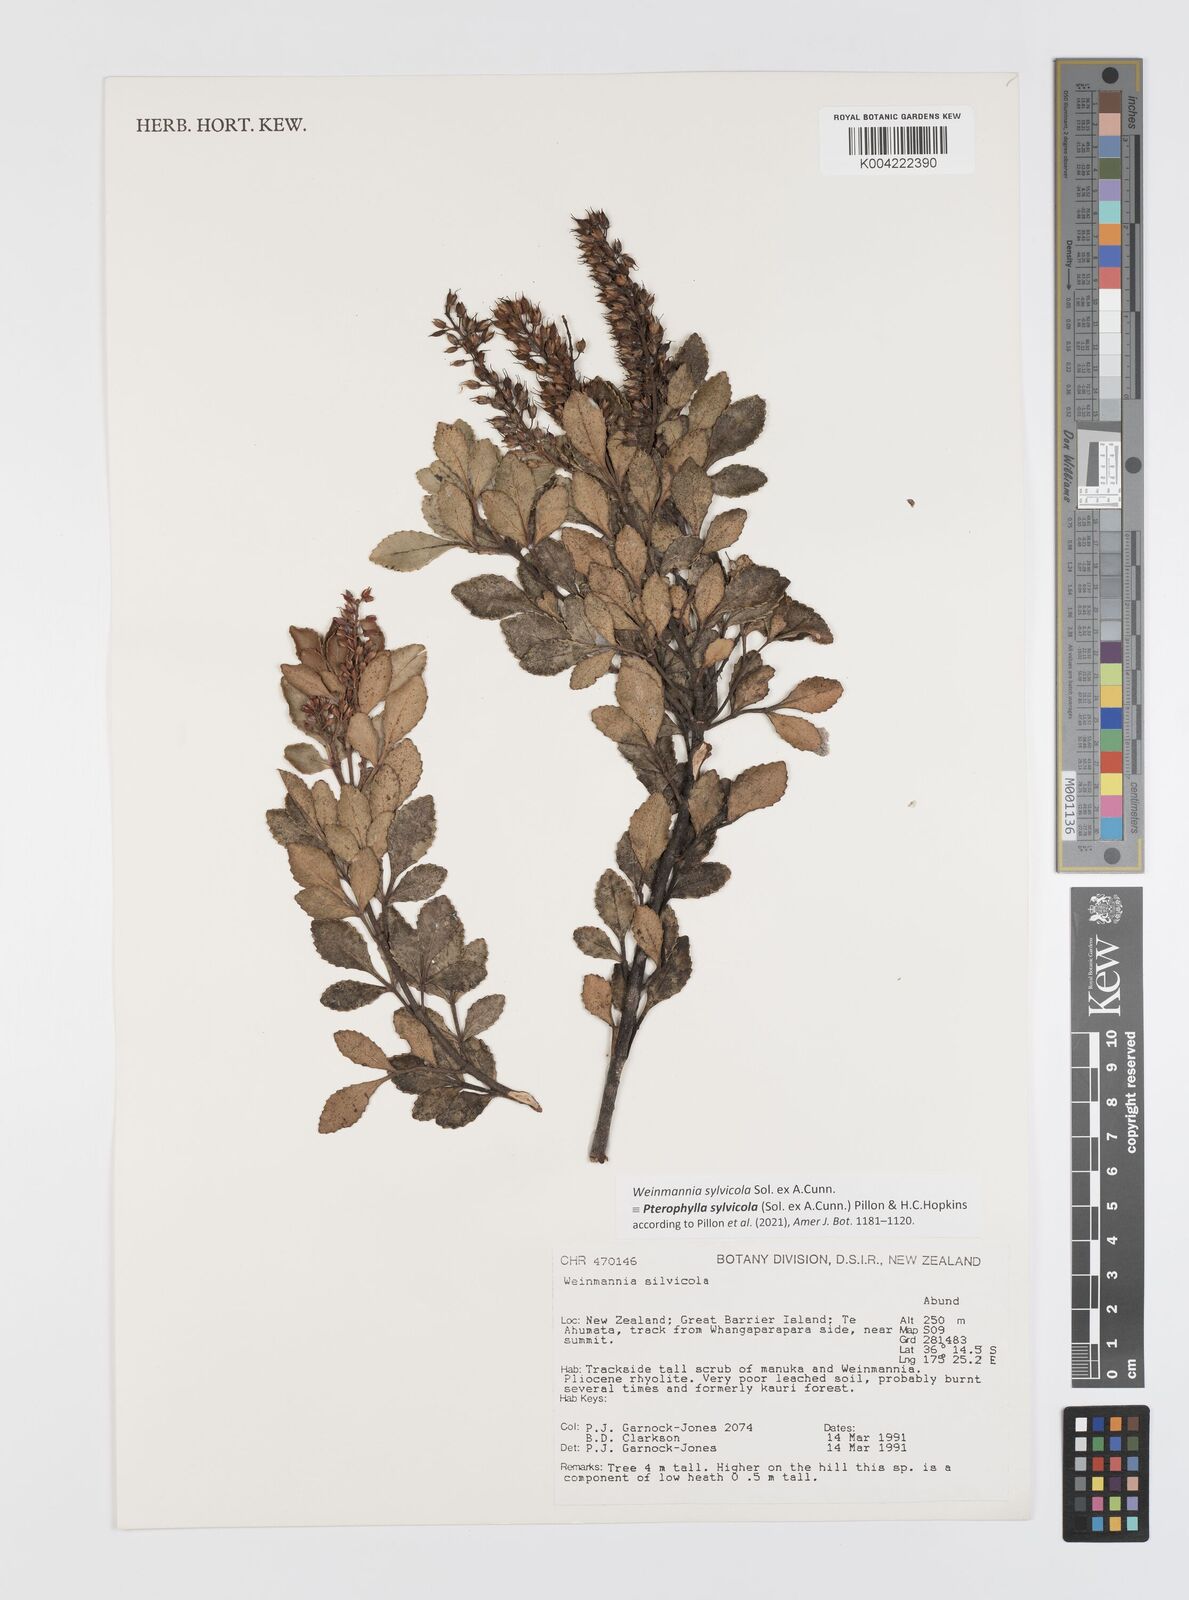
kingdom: Plantae
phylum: Tracheophyta
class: Magnoliopsida
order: Oxalidales
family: Cunoniaceae
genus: Pterophylla
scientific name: Pterophylla sylvicola
